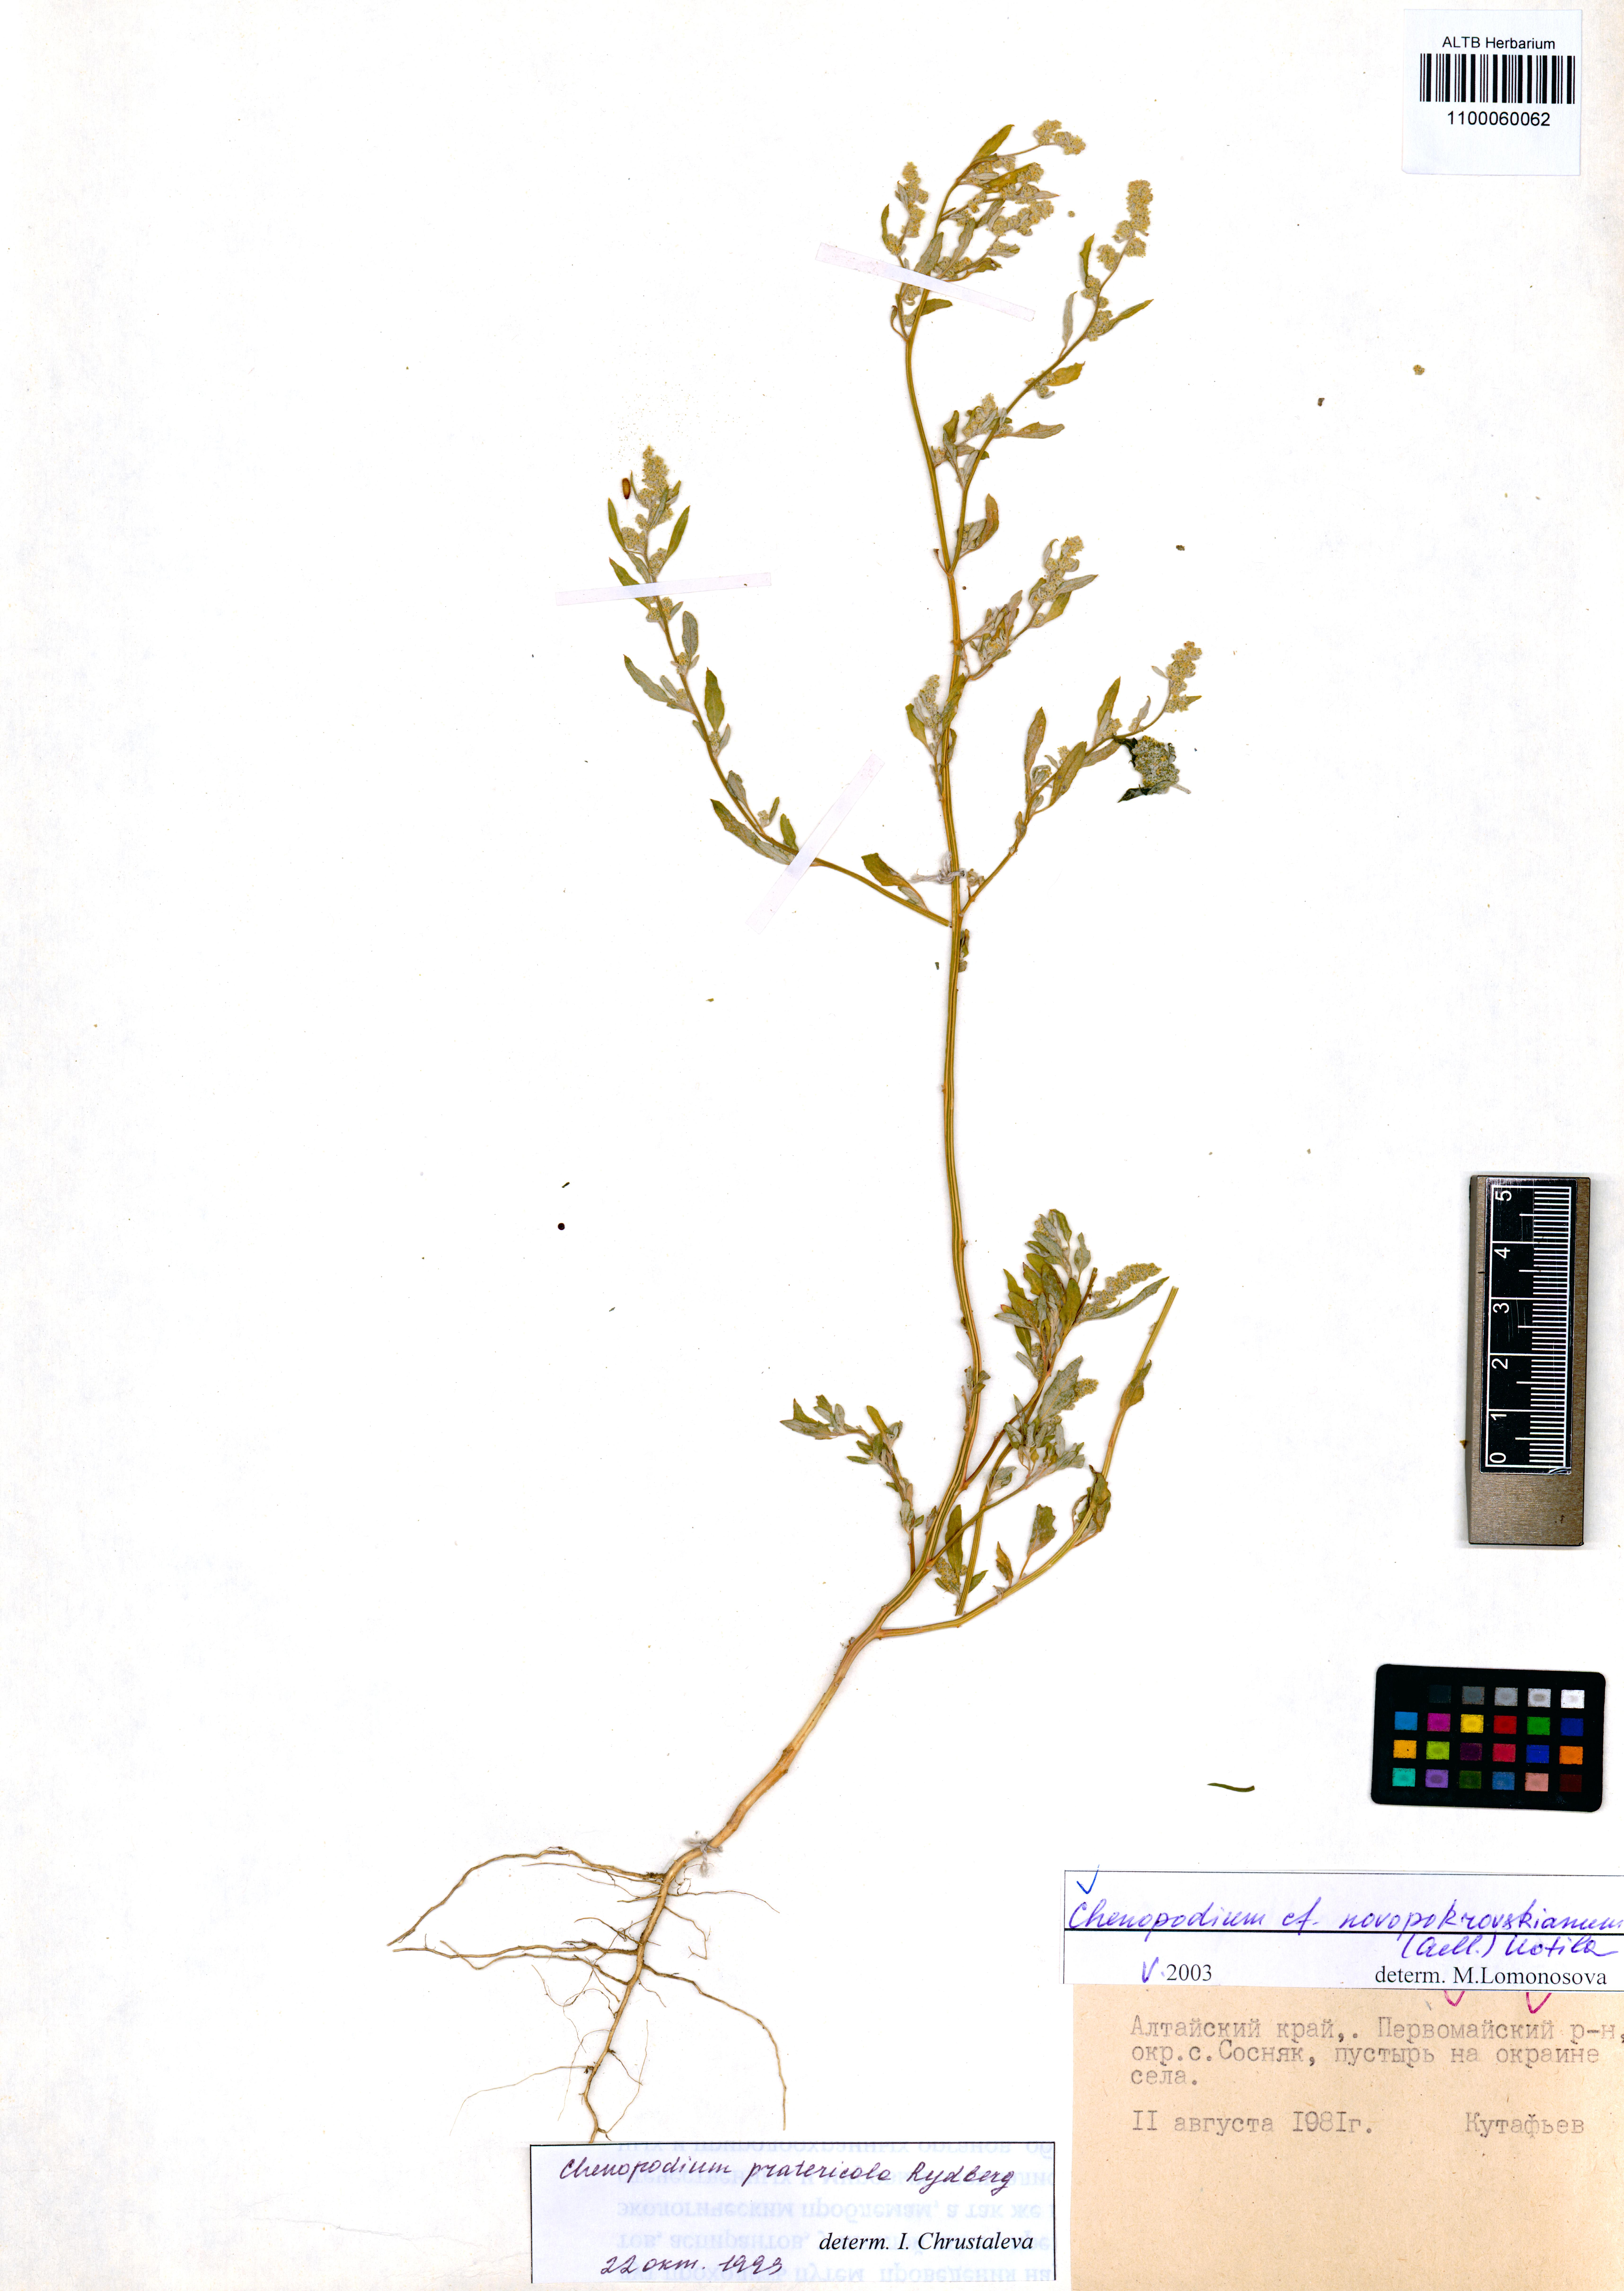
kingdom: Plantae
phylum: Tracheophyta
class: Magnoliopsida
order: Caryophyllales
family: Amaranthaceae
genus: Chenopodium
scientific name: Chenopodium novopokrovskyanum
